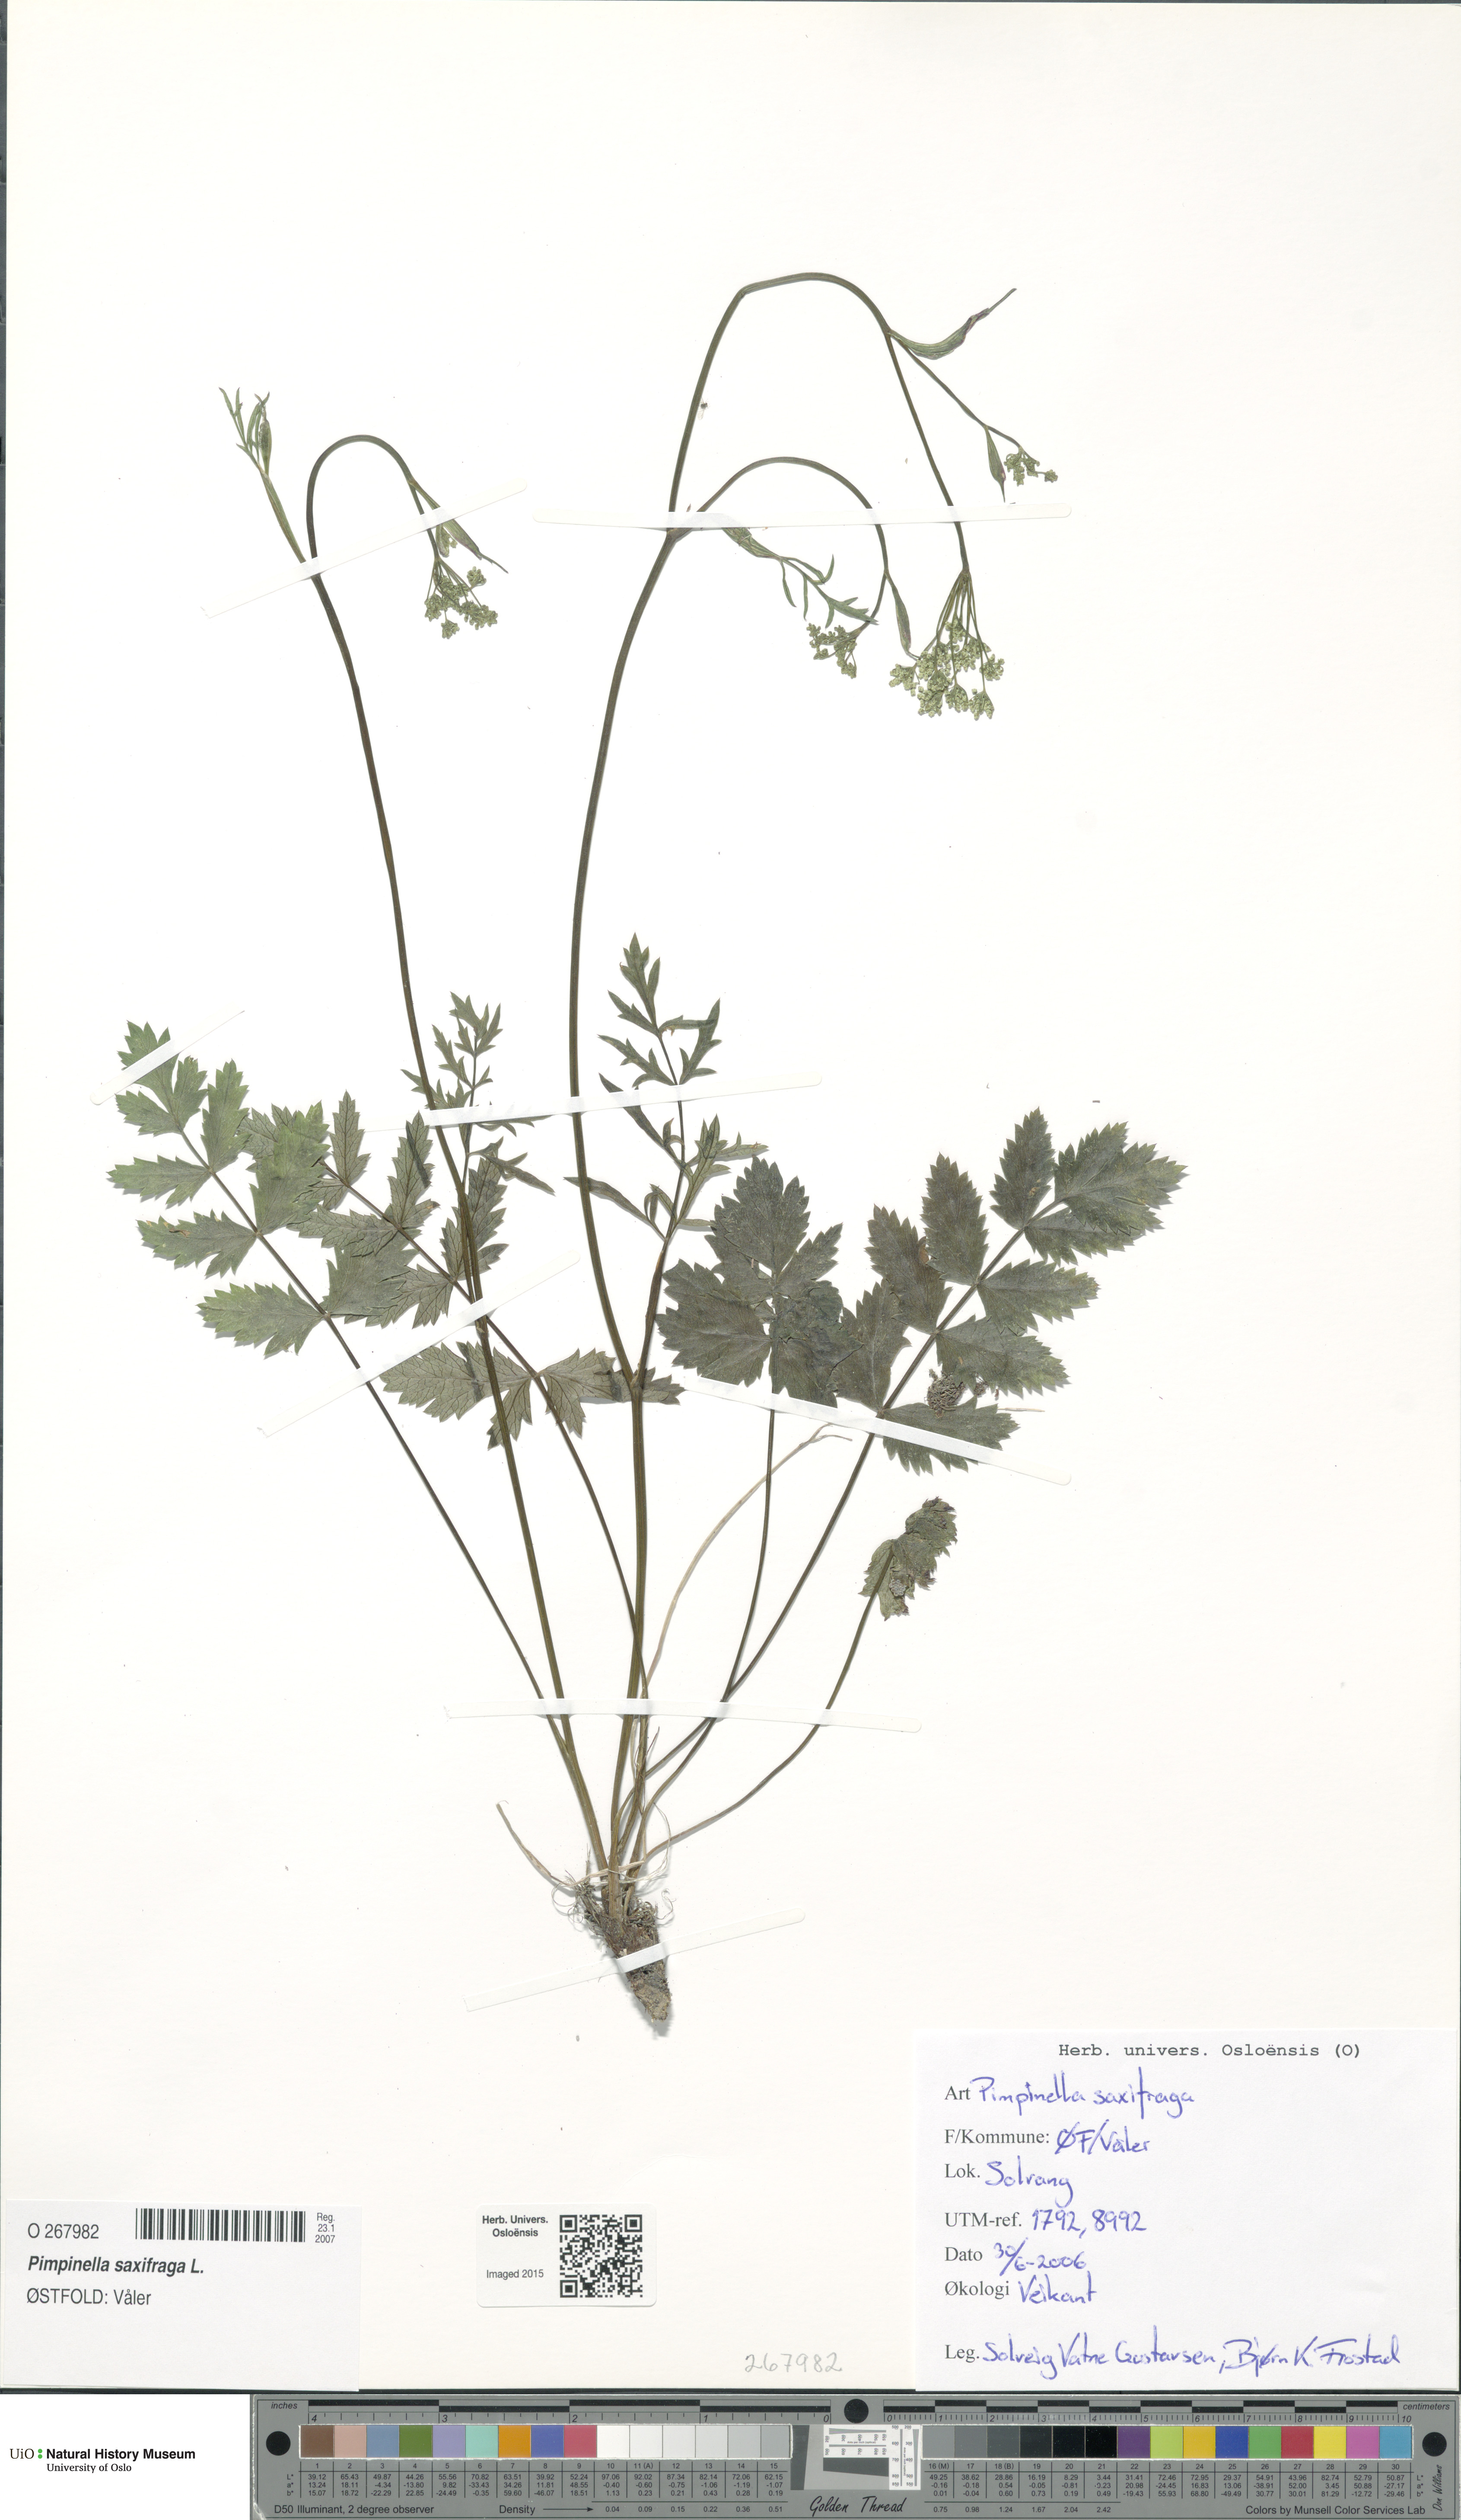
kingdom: Plantae
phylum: Tracheophyta
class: Magnoliopsida
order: Apiales
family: Apiaceae
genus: Pimpinella
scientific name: Pimpinella saxifraga
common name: Burnet-saxifrage
